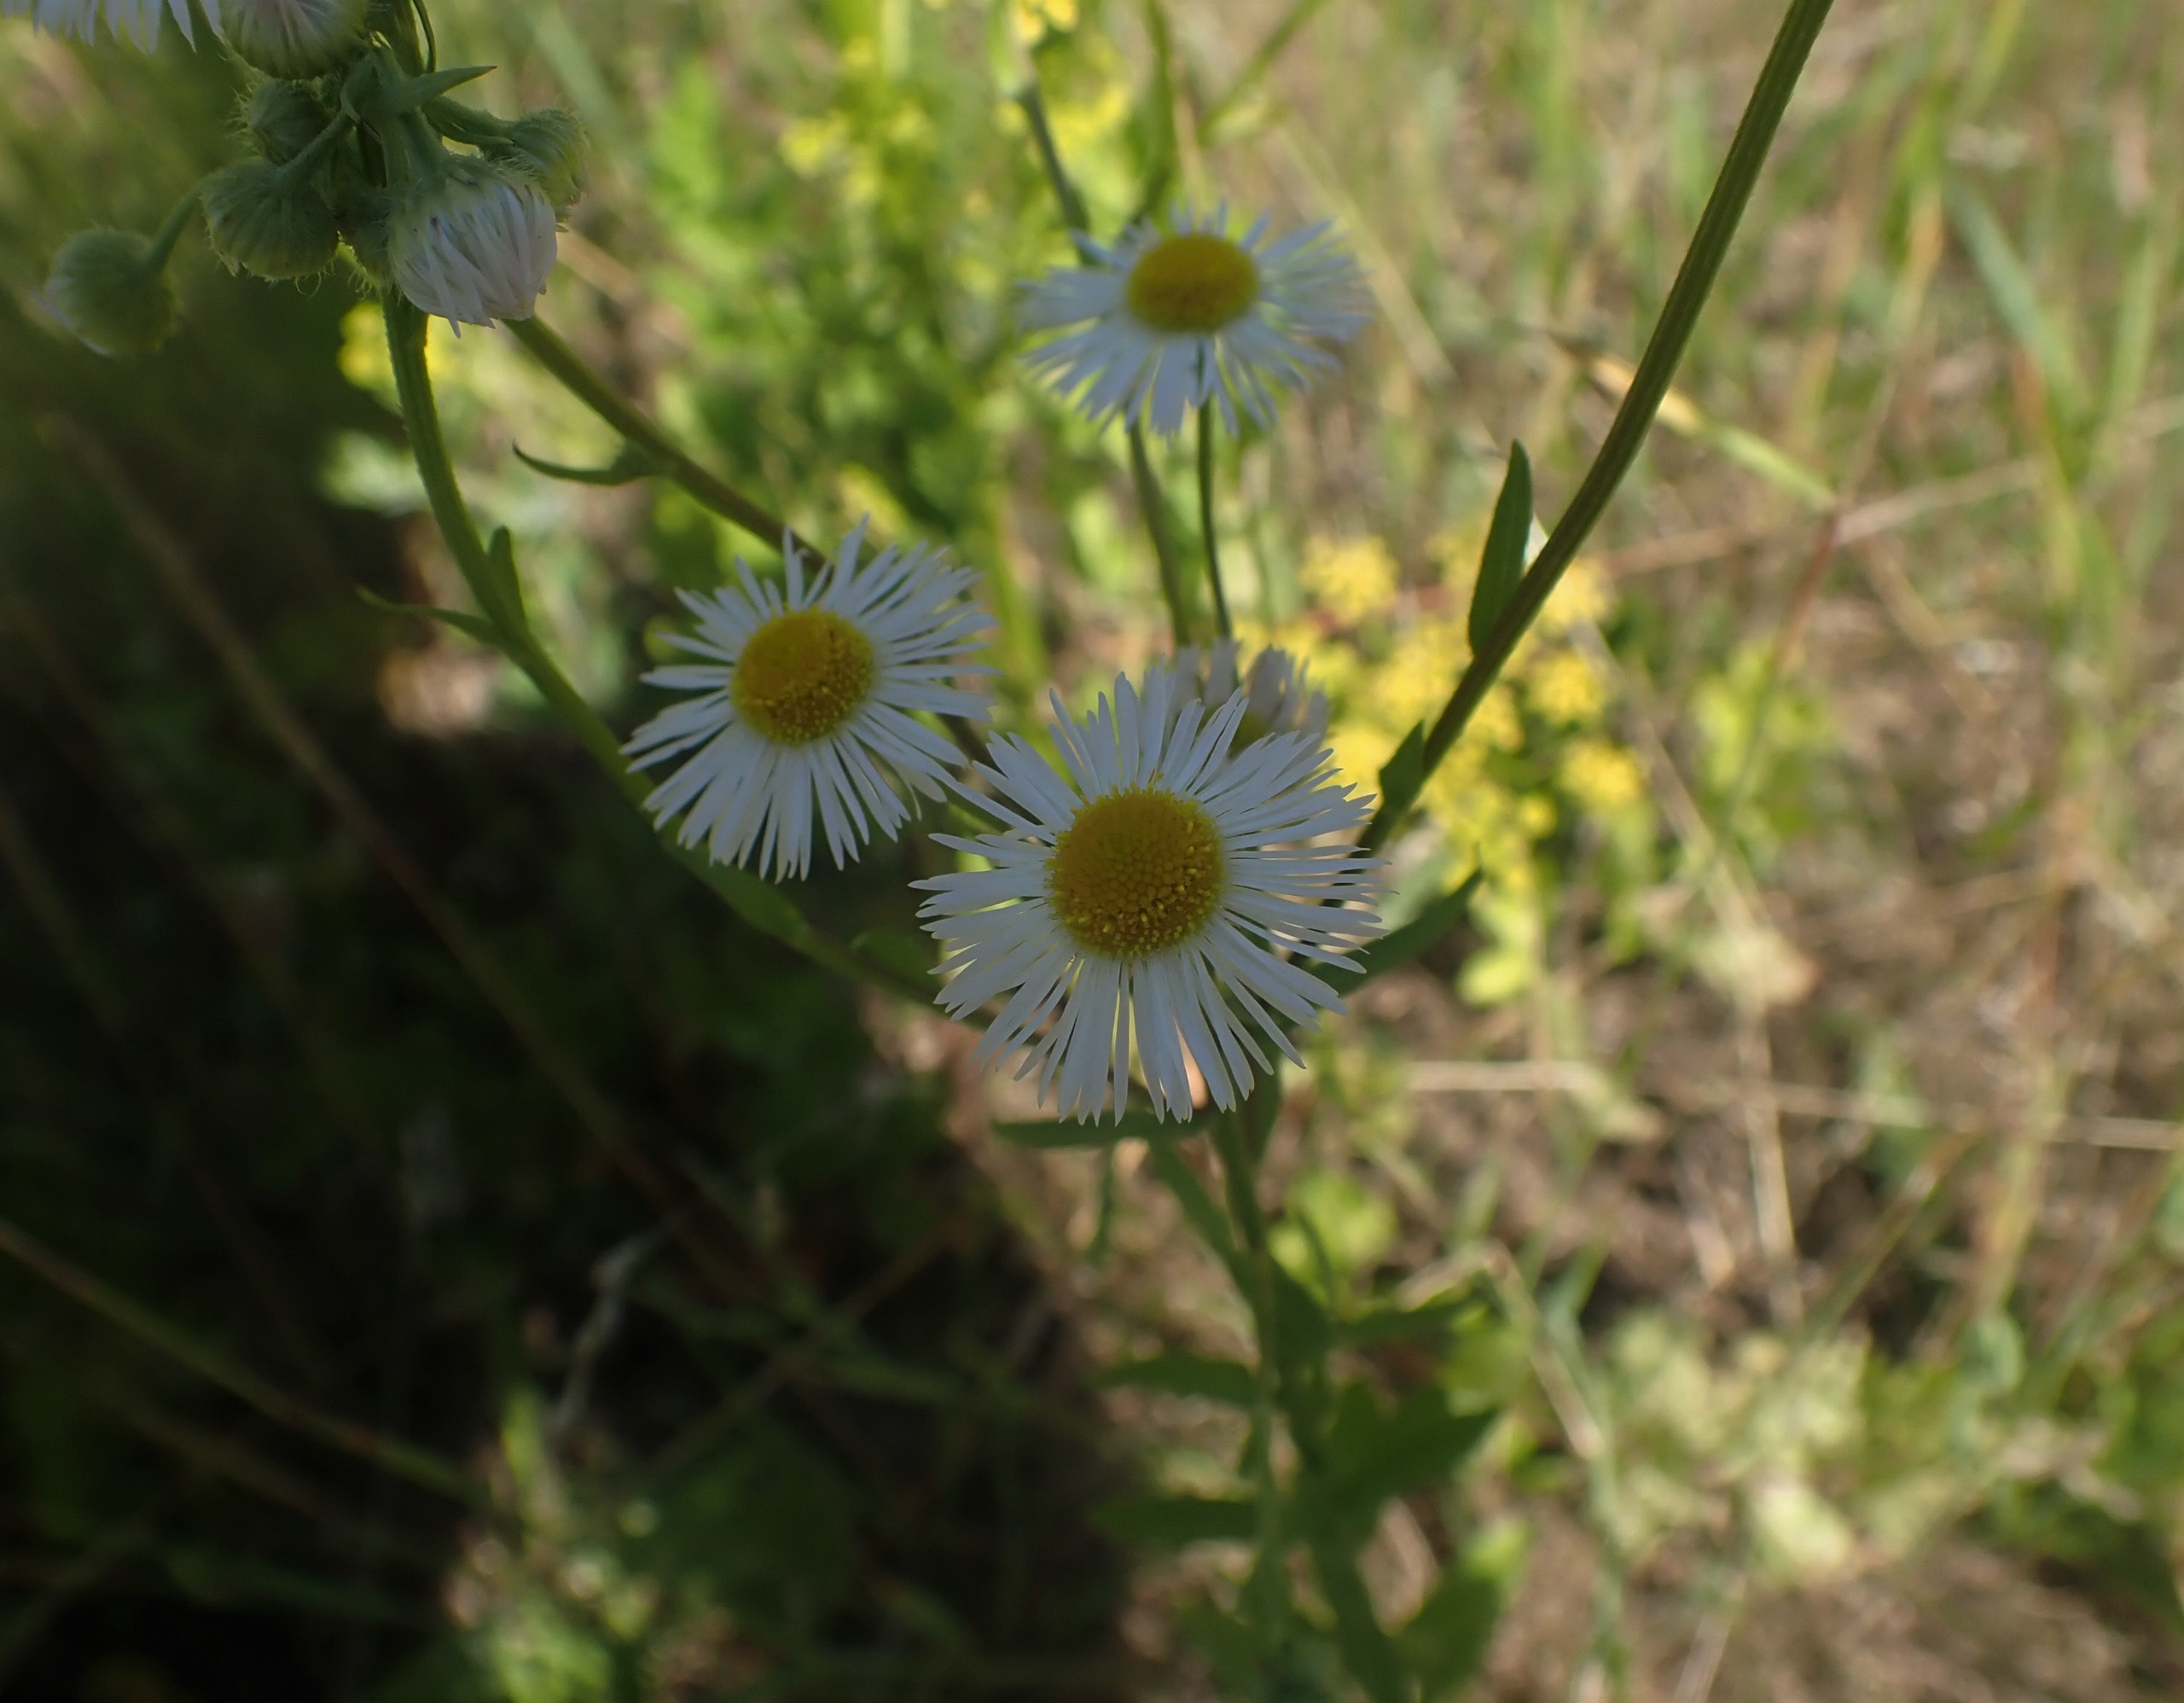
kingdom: Plantae
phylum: Tracheophyta
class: Magnoliopsida
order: Asterales
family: Asteraceae
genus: Erigeron
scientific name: Erigeron annuus
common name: Smalstråle
